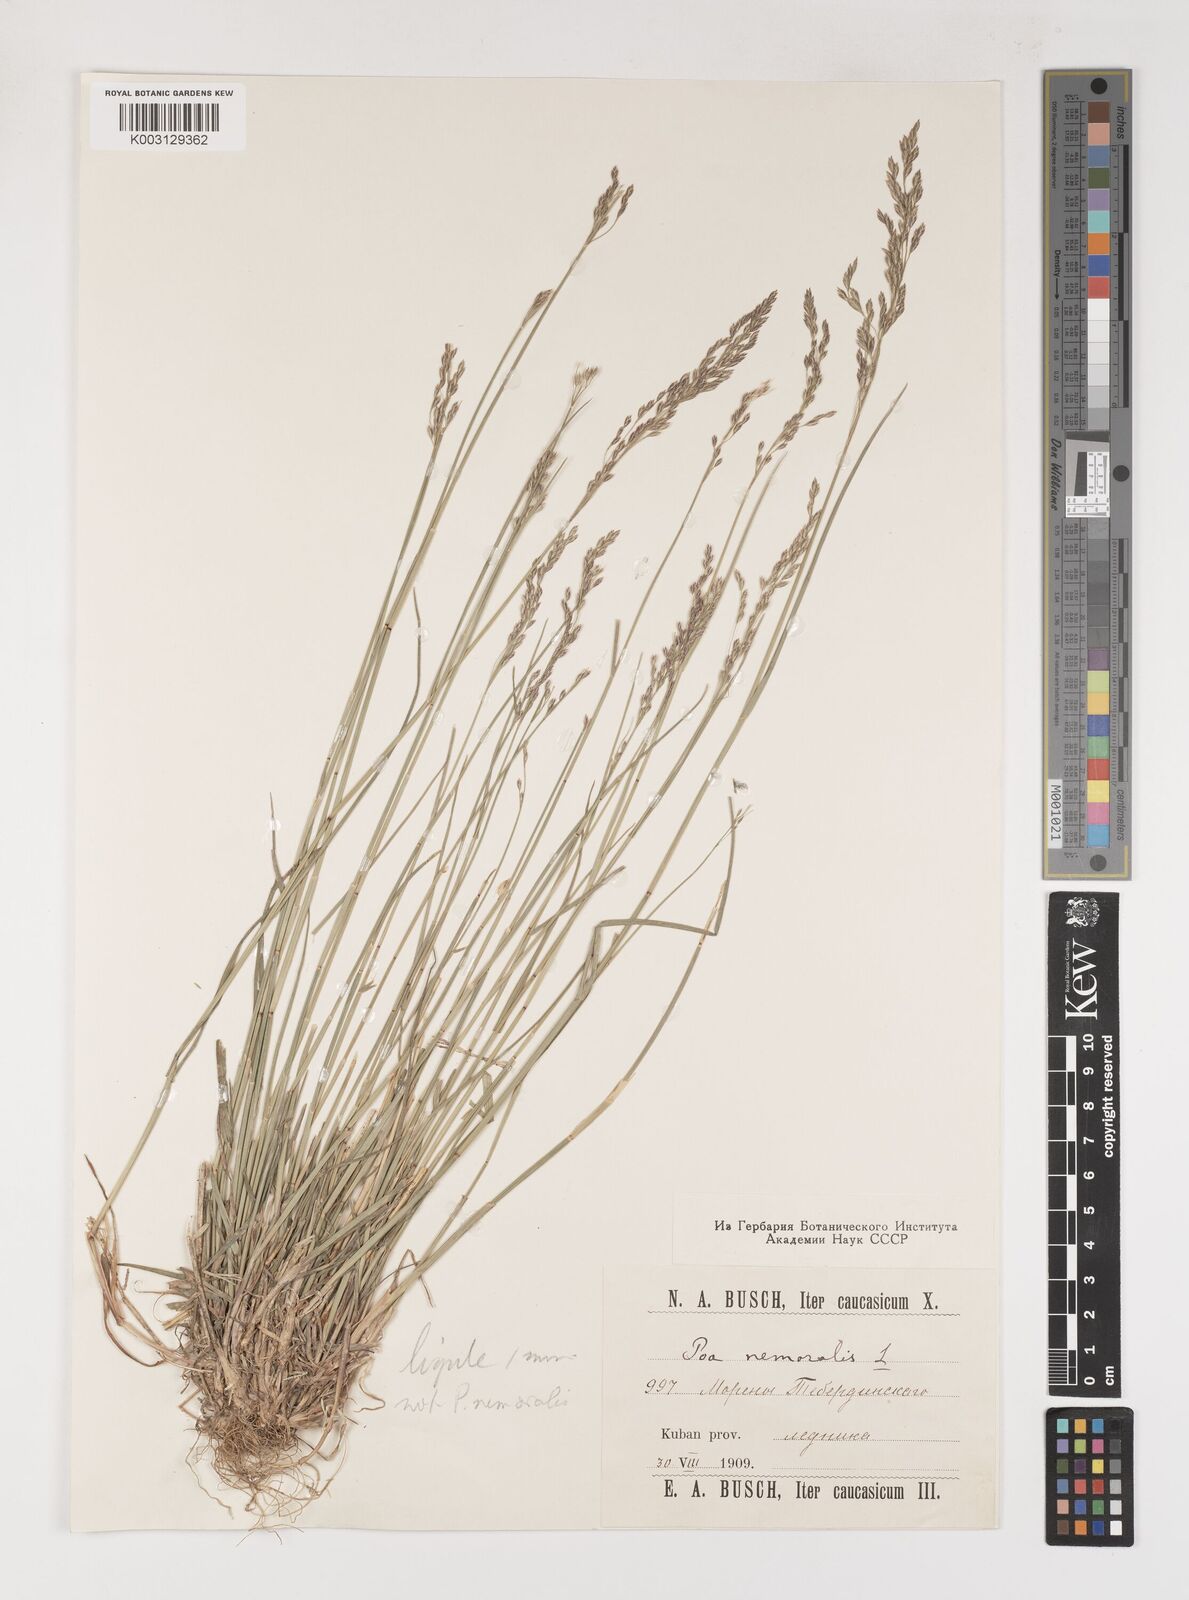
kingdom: Plantae
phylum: Tracheophyta
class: Liliopsida
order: Poales
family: Poaceae
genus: Poa
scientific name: Poa nemoralis
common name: Wood bluegrass
